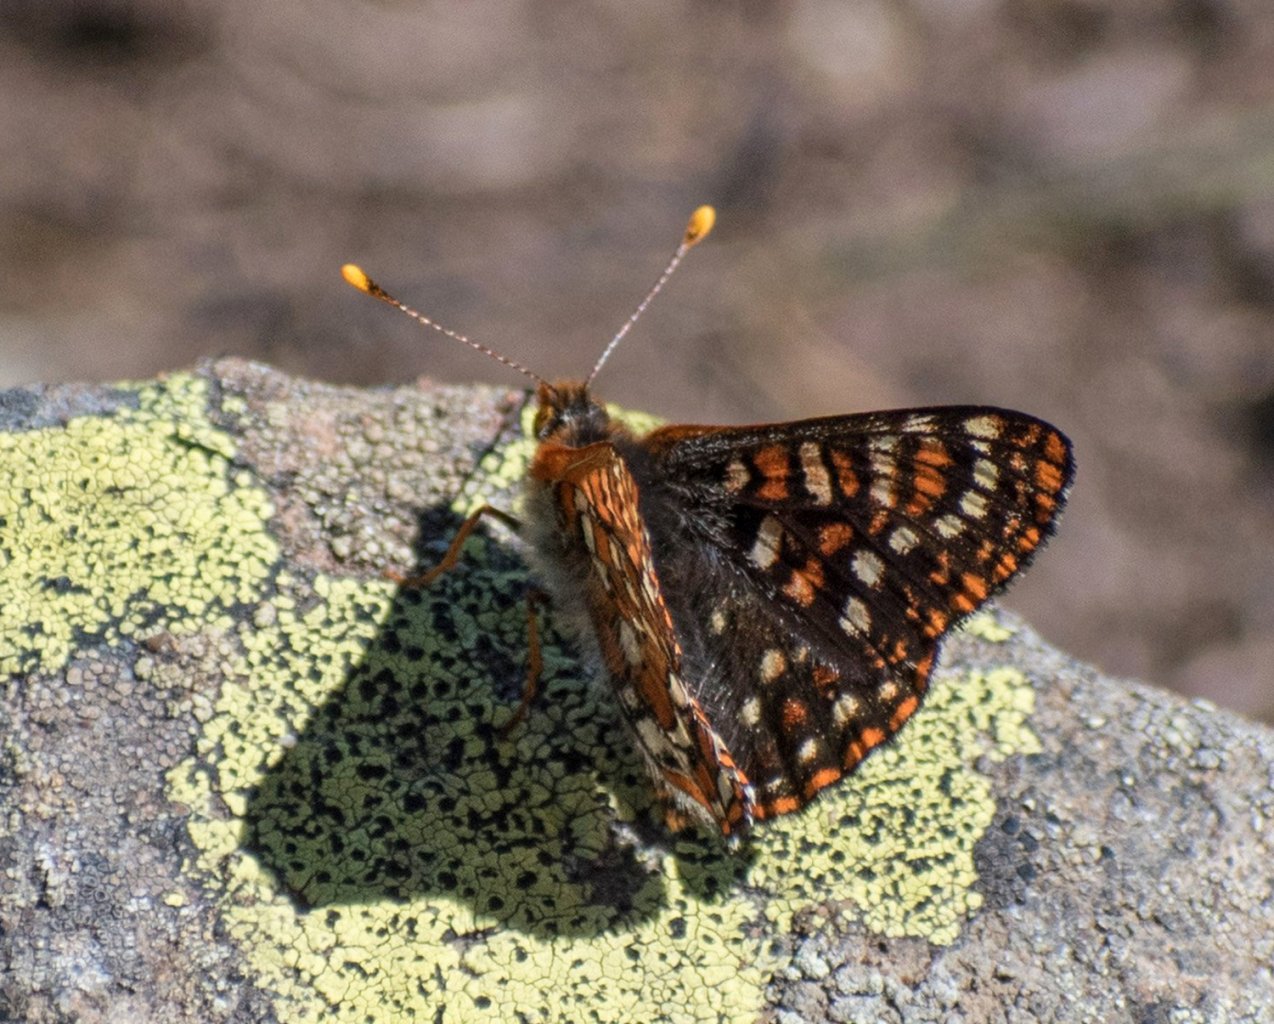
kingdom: Animalia
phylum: Arthropoda
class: Insecta
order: Lepidoptera
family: Nymphalidae
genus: Euphydryas
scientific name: Euphydryas
